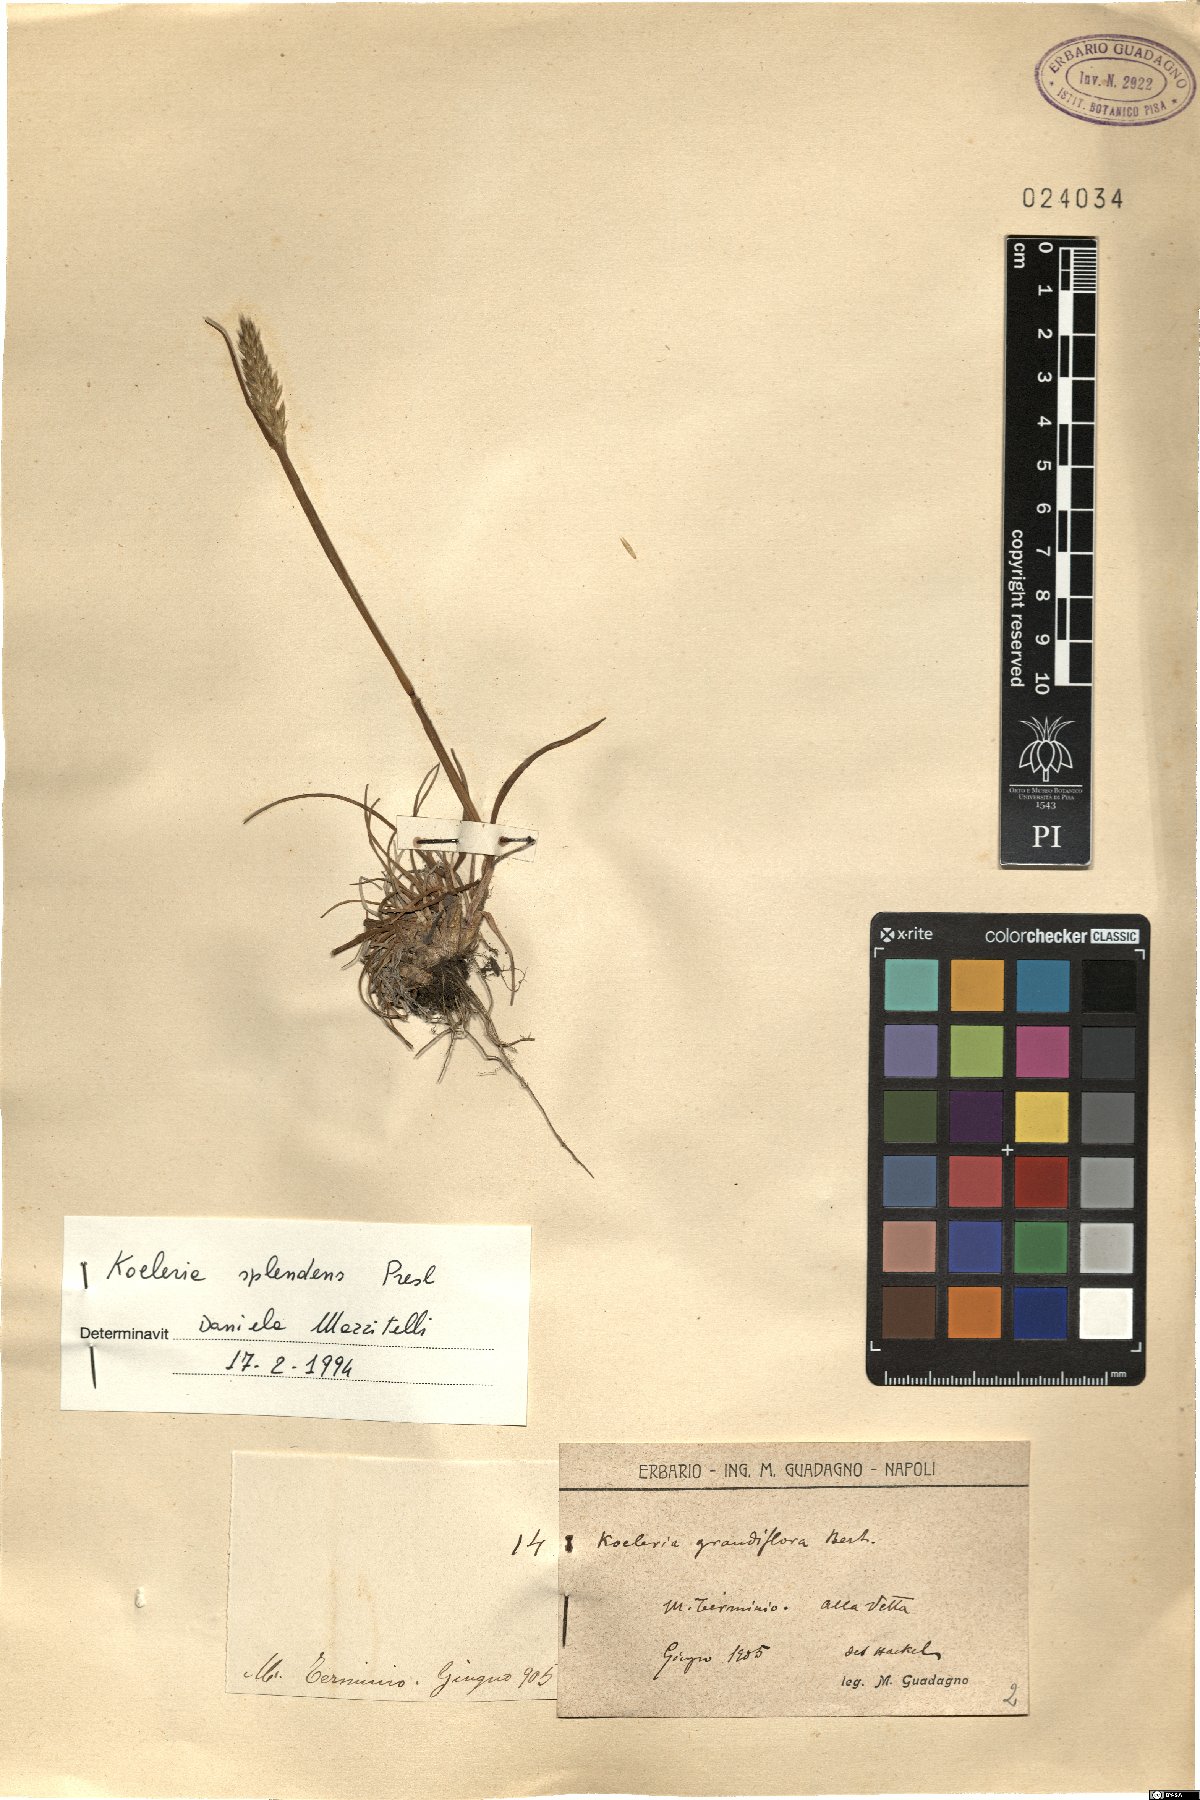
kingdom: Plantae
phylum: Tracheophyta
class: Liliopsida
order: Poales
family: Poaceae
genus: Koeleria
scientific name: Koeleria splendens
